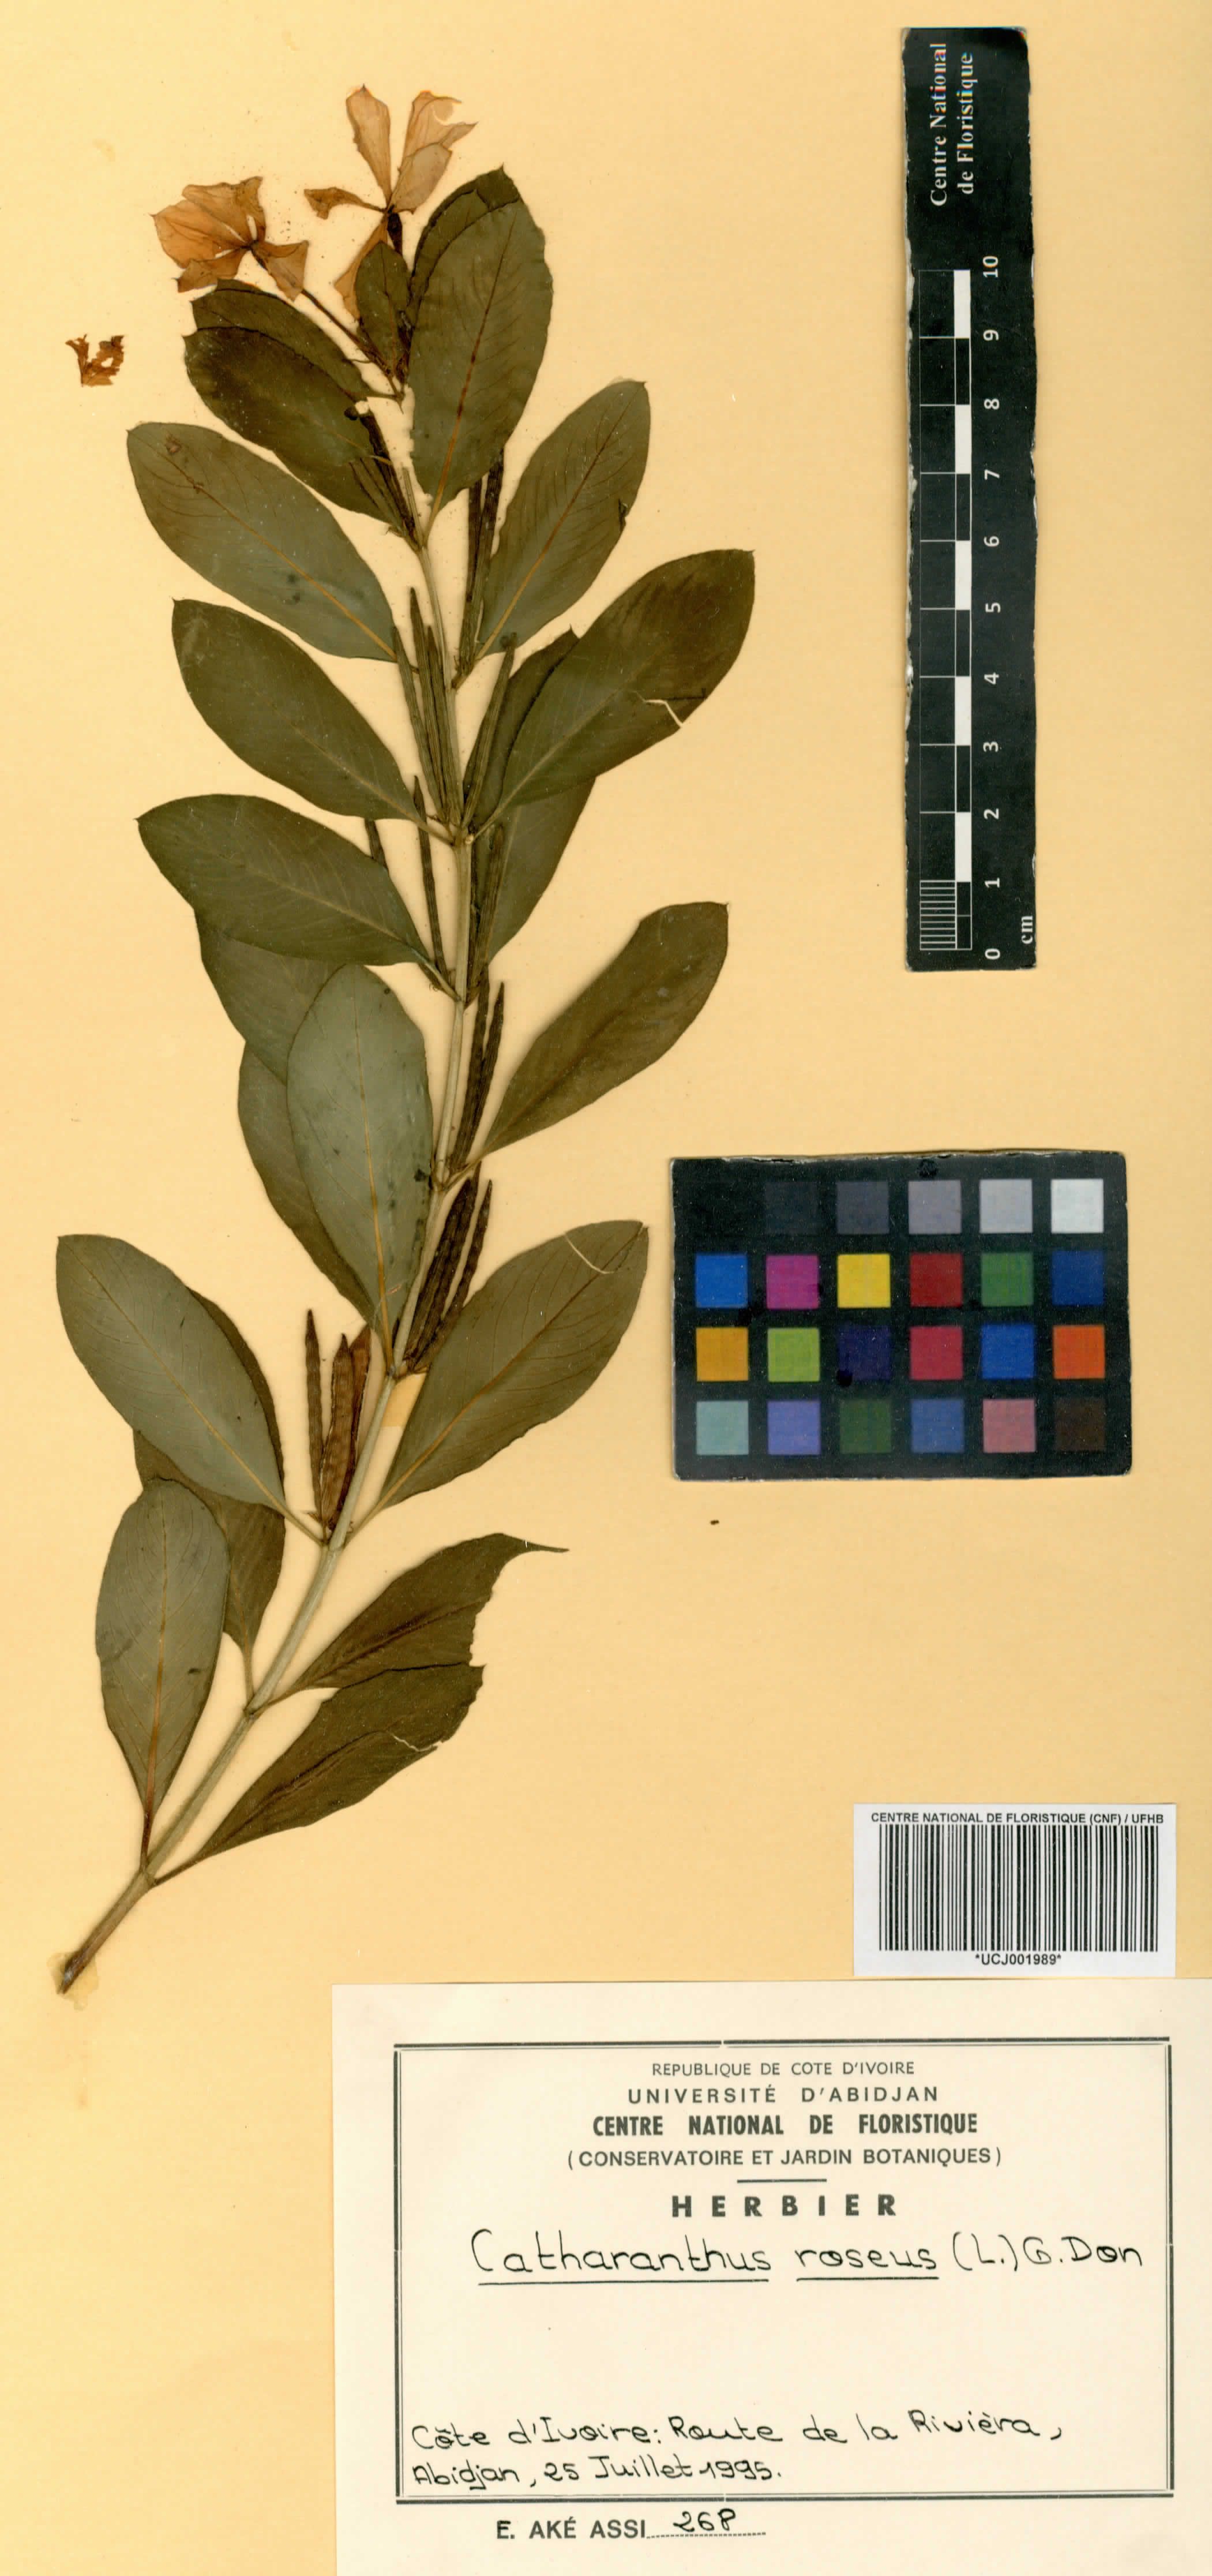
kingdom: Plantae
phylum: Tracheophyta
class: Magnoliopsida
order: Gentianales
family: Apocynaceae
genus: Catharanthus
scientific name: Catharanthus roseus
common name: Madagascar periwinkle
